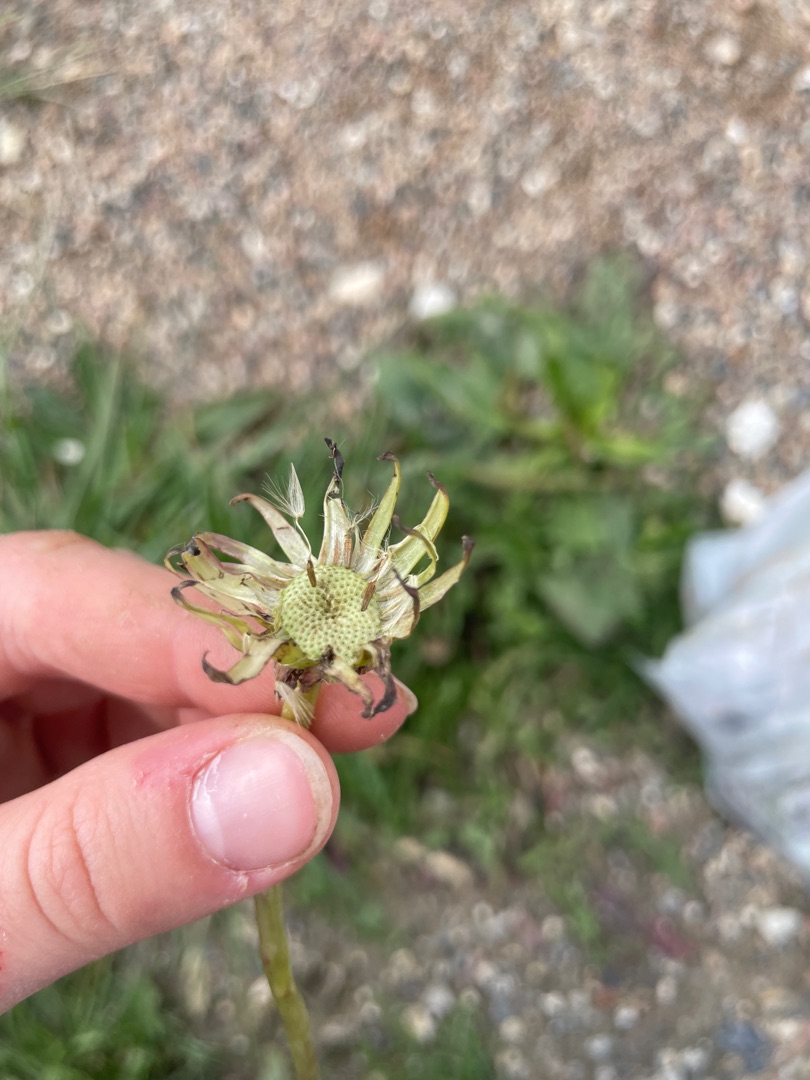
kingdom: Plantae
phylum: Tracheophyta
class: Magnoliopsida
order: Asterales
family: Asteraceae
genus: Taraxacum
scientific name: Taraxacum
